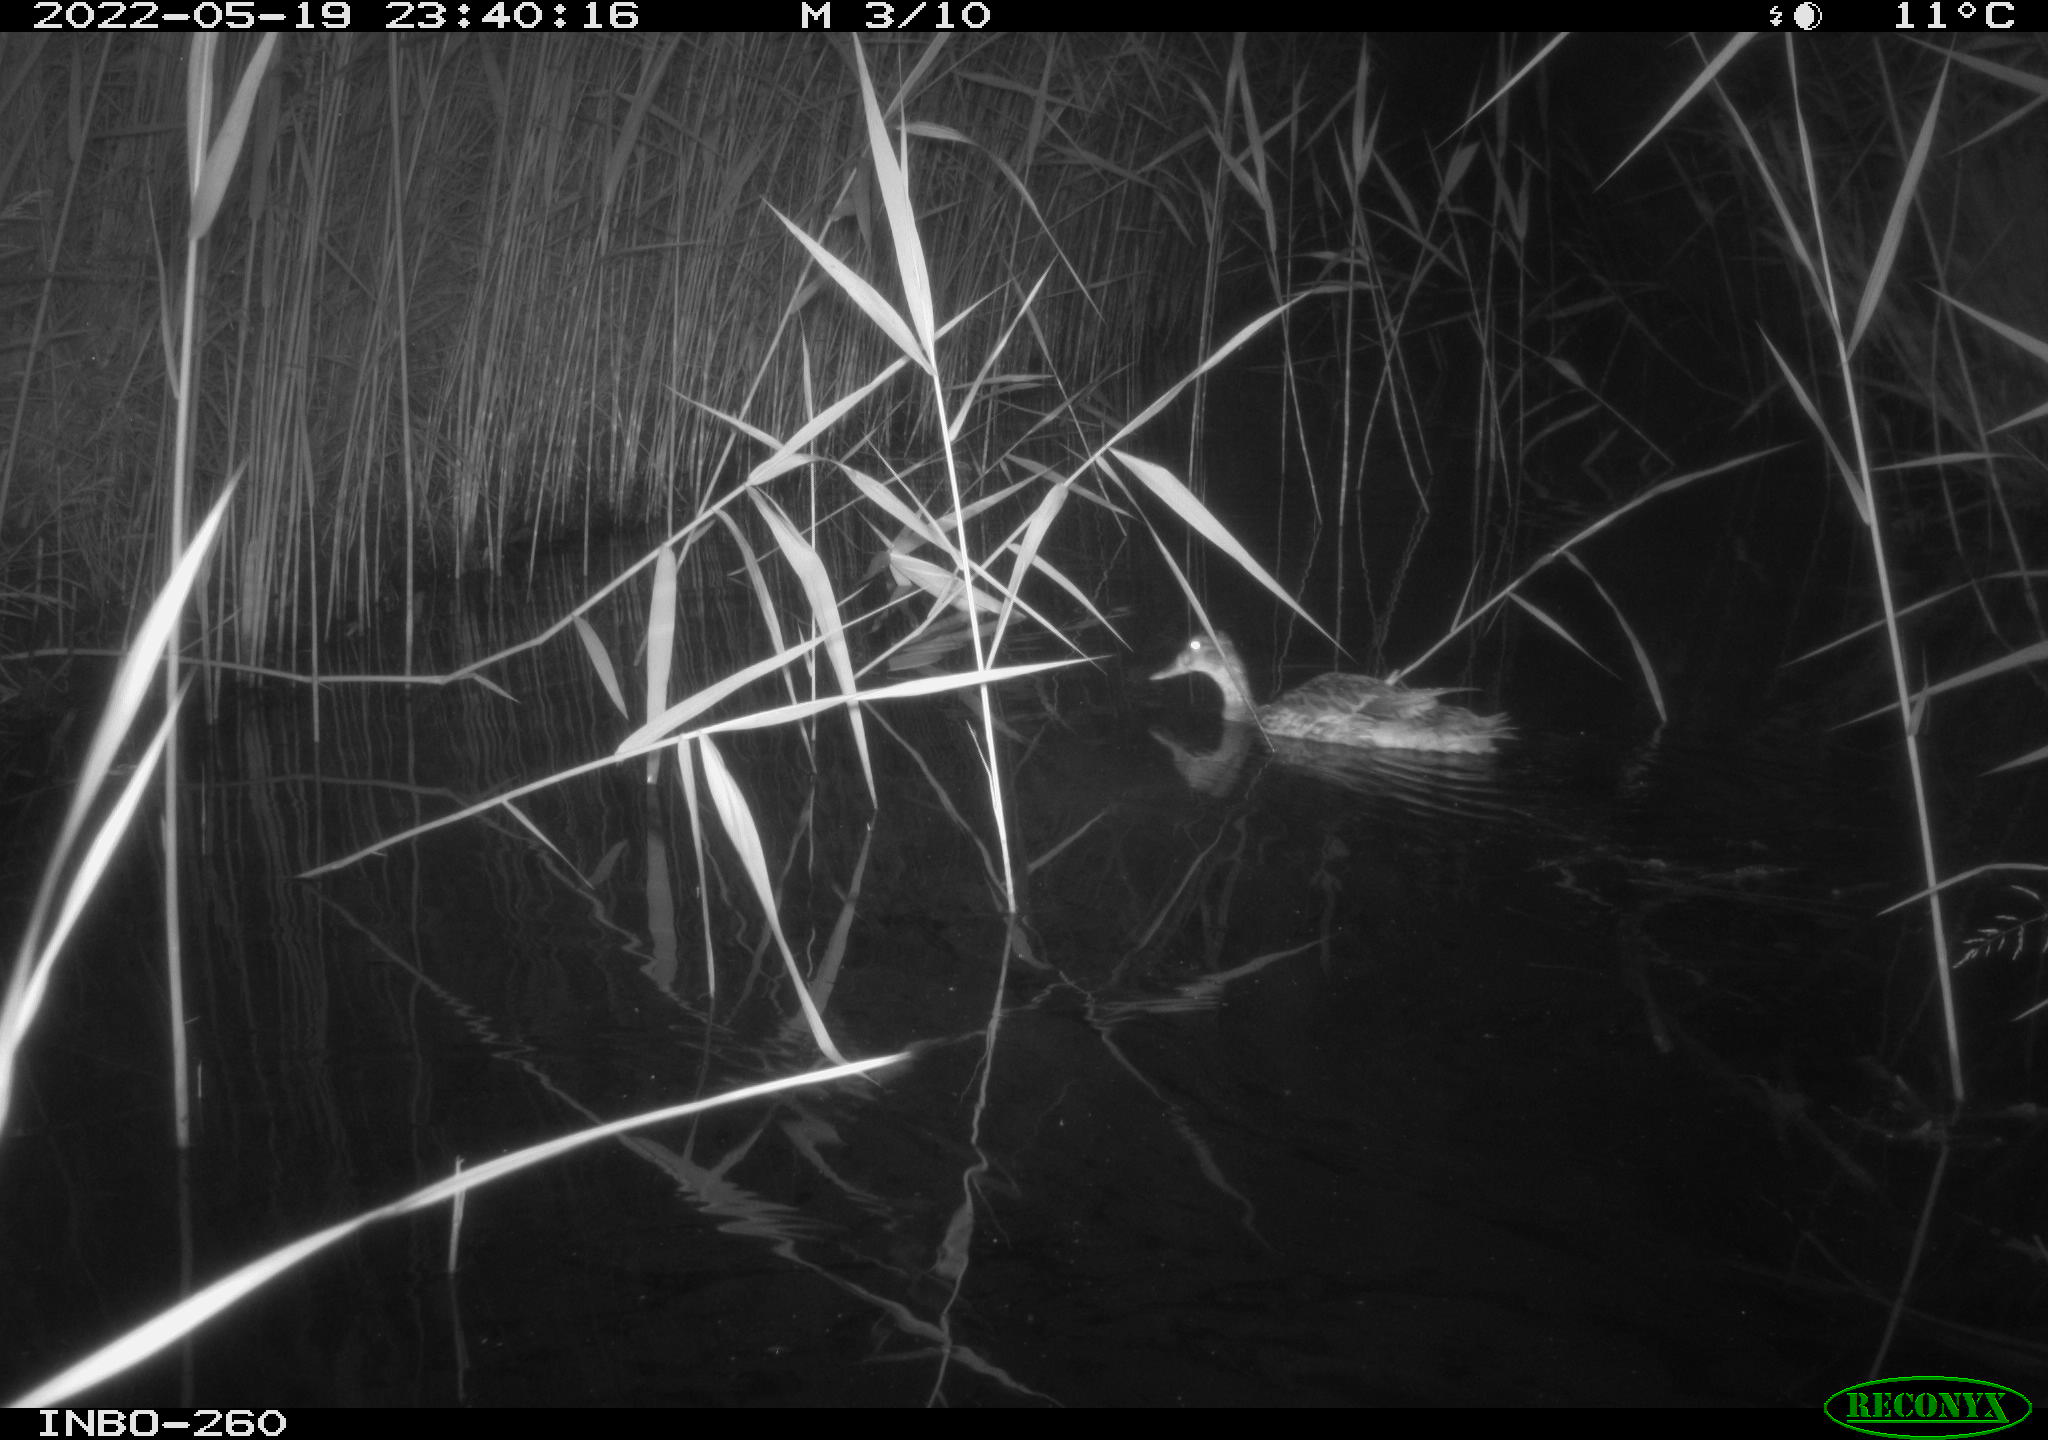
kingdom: Animalia
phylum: Chordata
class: Aves
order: Anseriformes
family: Anatidae
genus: Anas
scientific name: Anas
